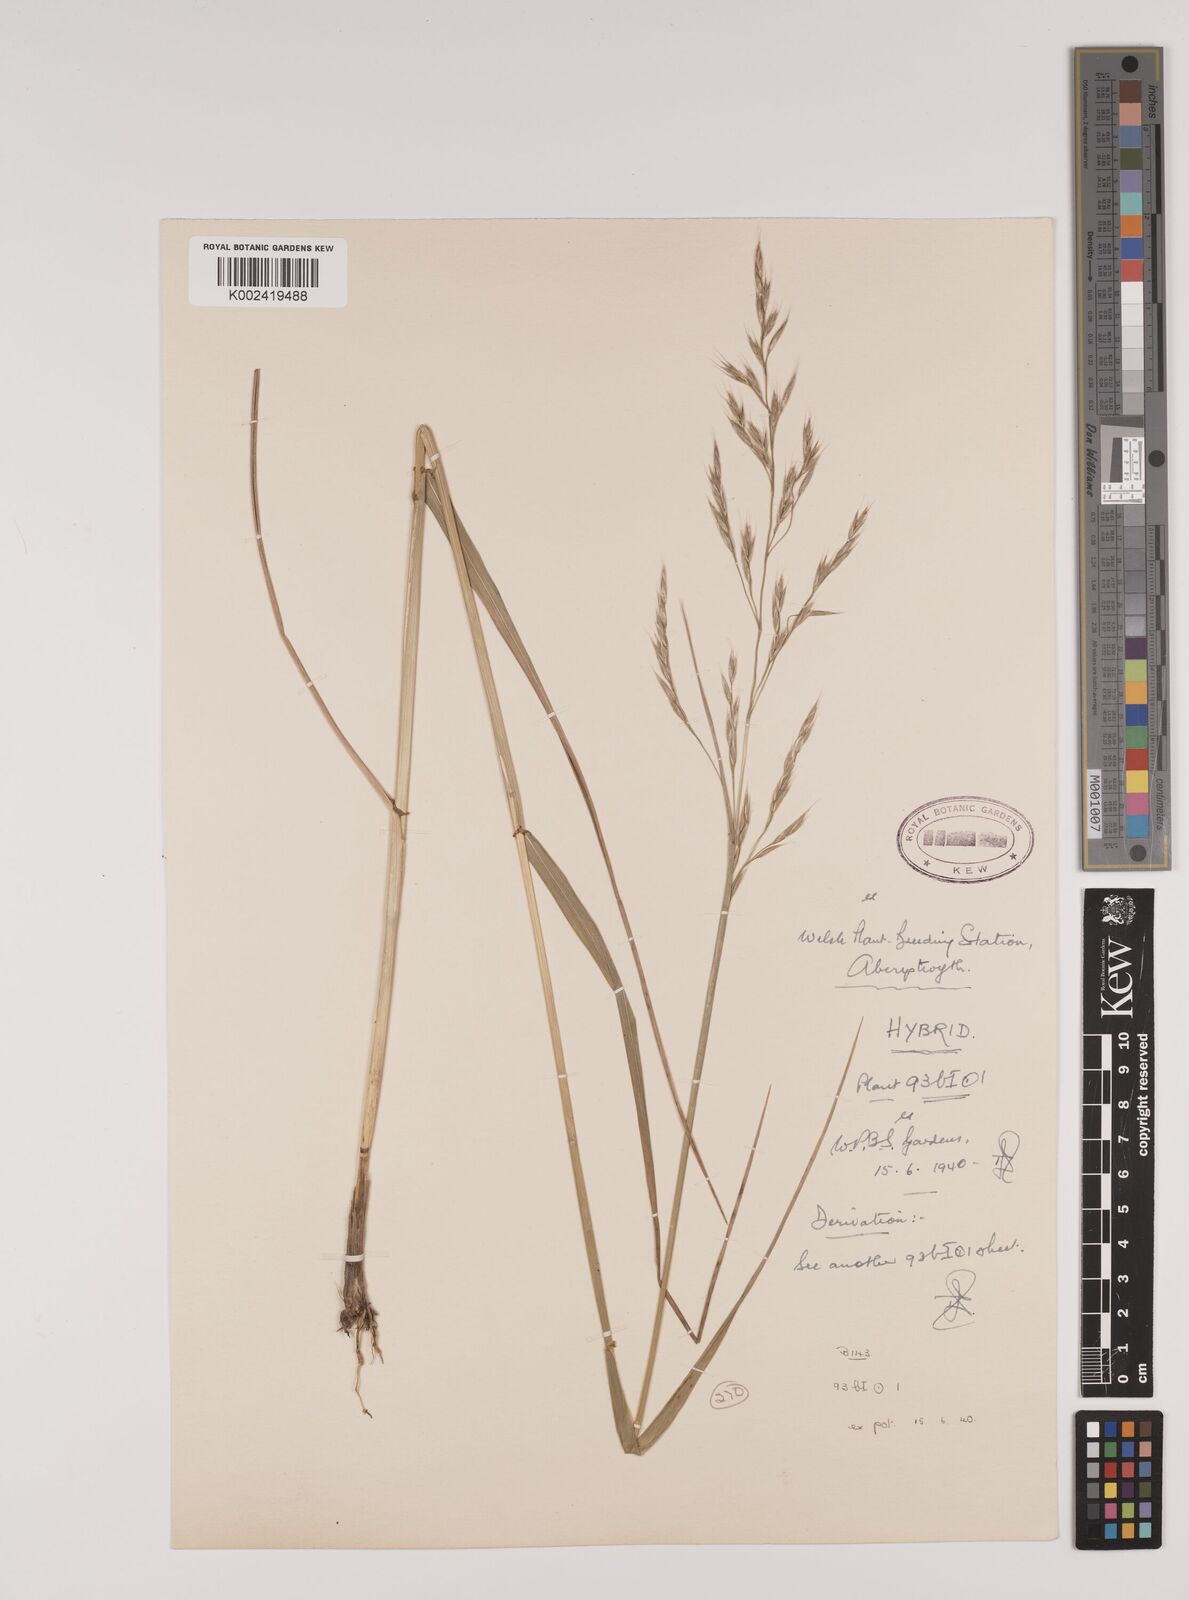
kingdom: Plantae
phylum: Tracheophyta
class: Liliopsida
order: Poales
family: Poaceae
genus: Lolium
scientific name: Lolium giganteum
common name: Giant fescue
